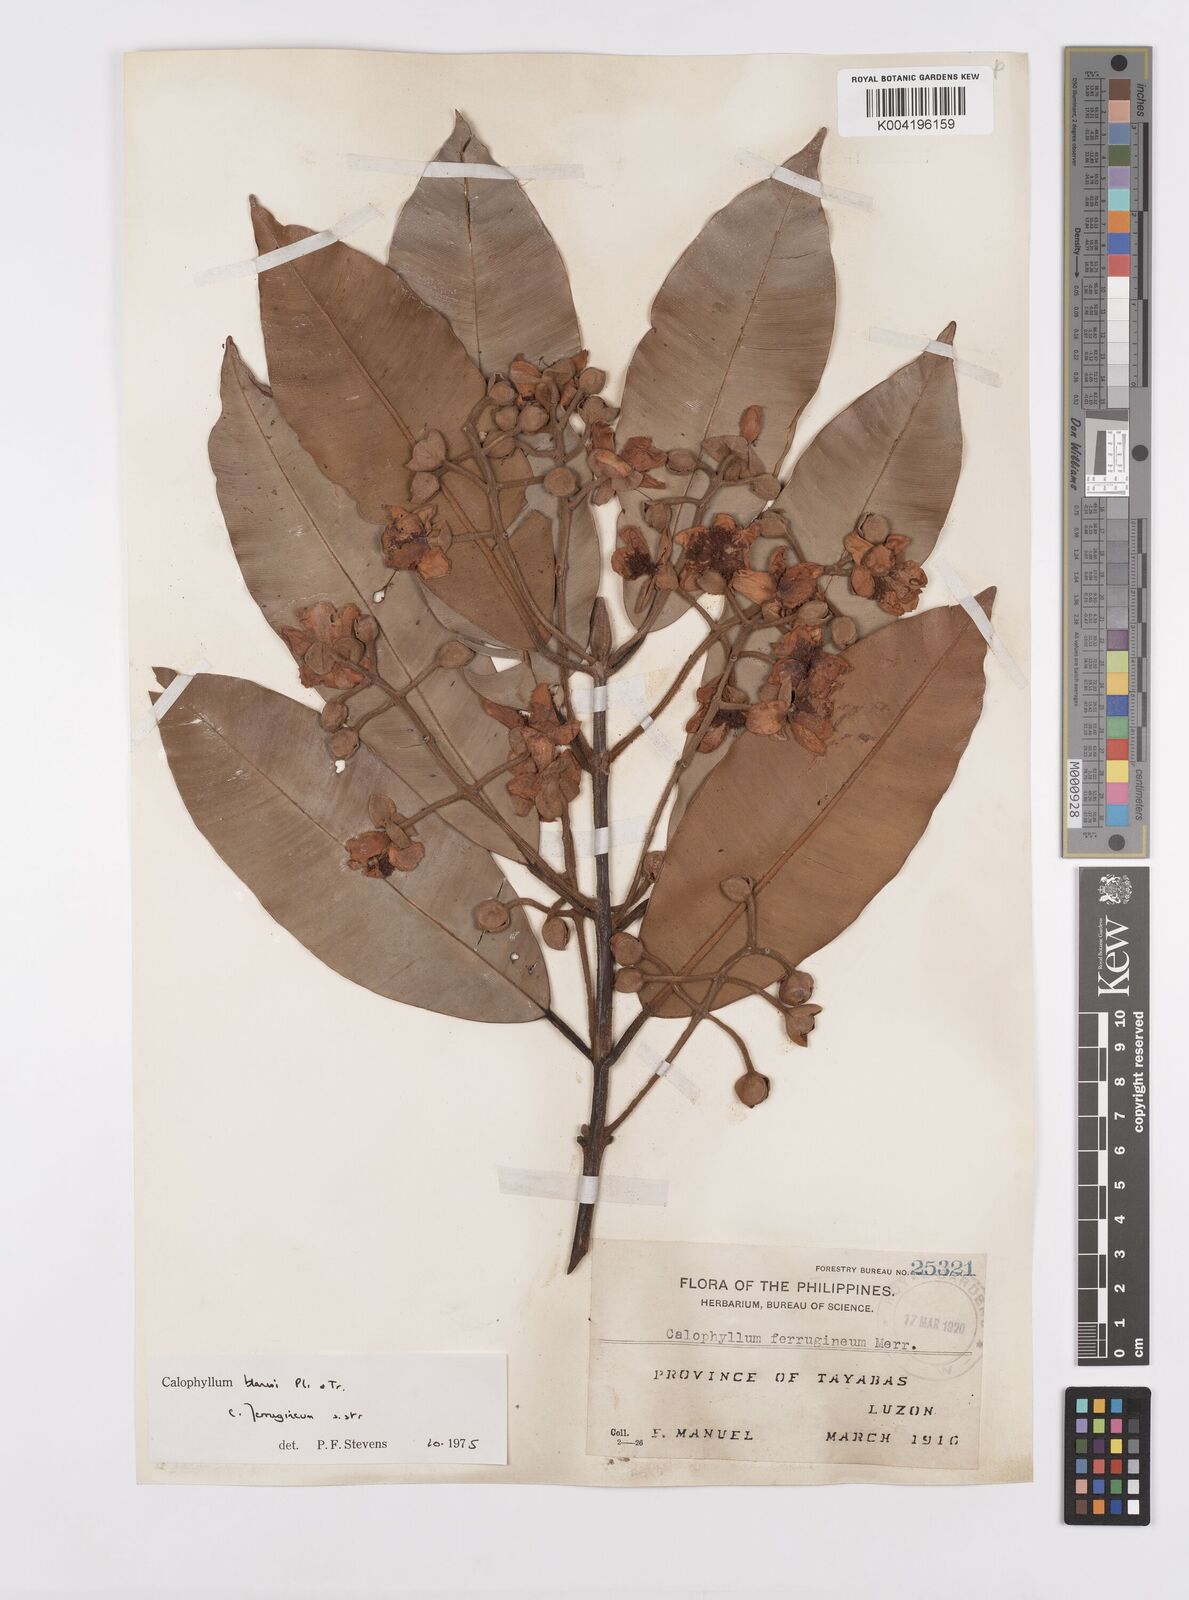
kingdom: Plantae
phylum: Tracheophyta
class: Magnoliopsida
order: Malpighiales
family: Calophyllaceae
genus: Calophyllum
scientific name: Calophyllum blancoi
